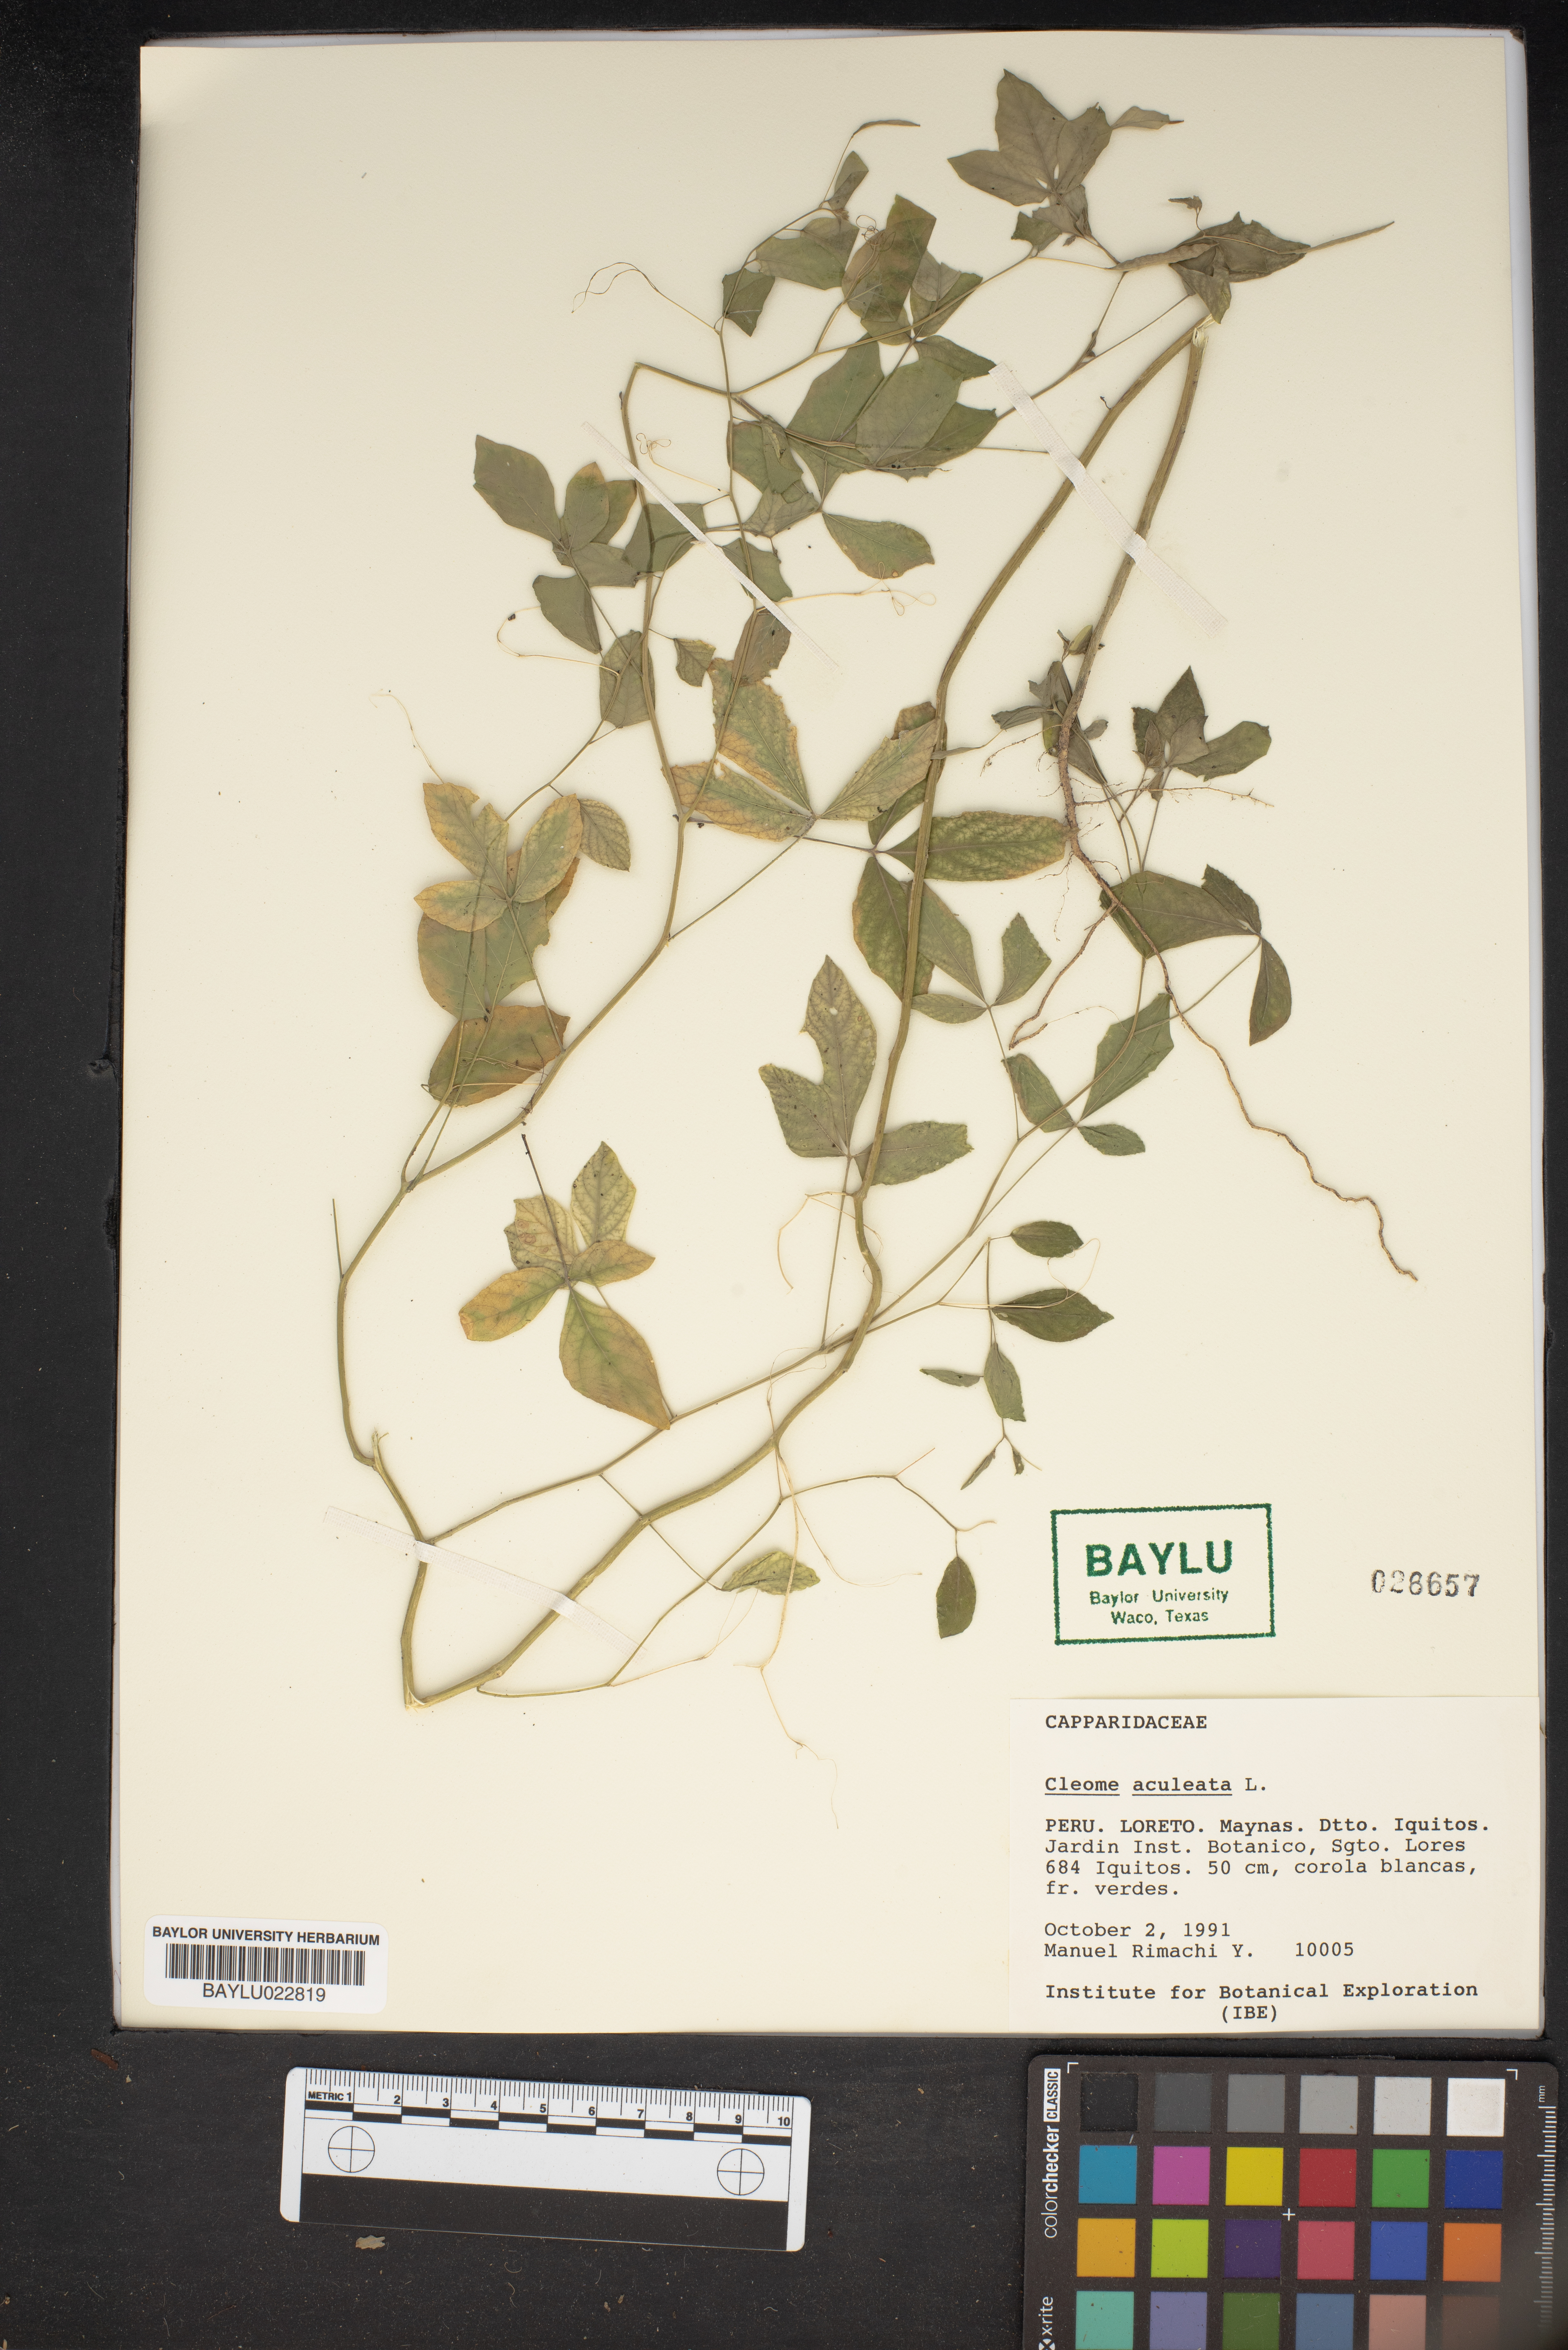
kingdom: Plantae
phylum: Tracheophyta
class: Magnoliopsida
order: Brassicales
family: Cleomaceae
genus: Tarenaya
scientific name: Tarenaya aculeata
